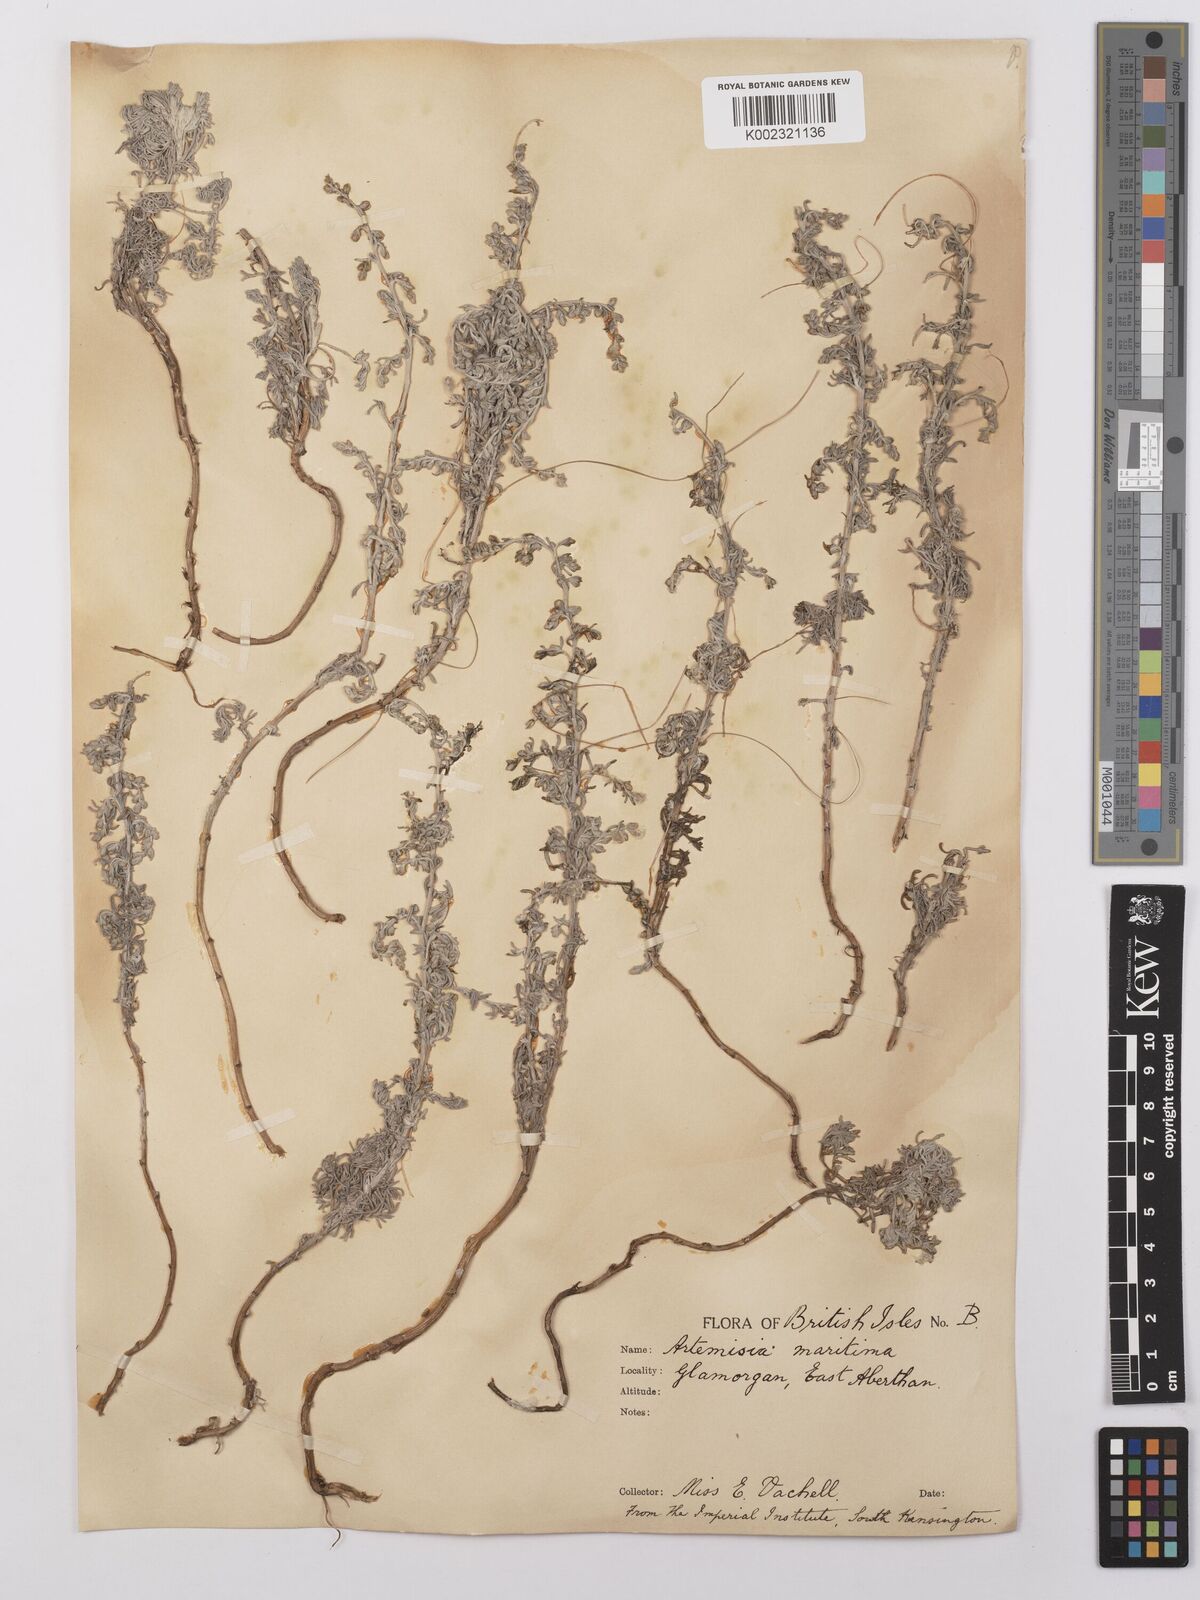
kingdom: Plantae
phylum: Tracheophyta
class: Magnoliopsida
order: Asterales
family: Asteraceae
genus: Artemisia
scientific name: Artemisia maritima
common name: Wormseed
